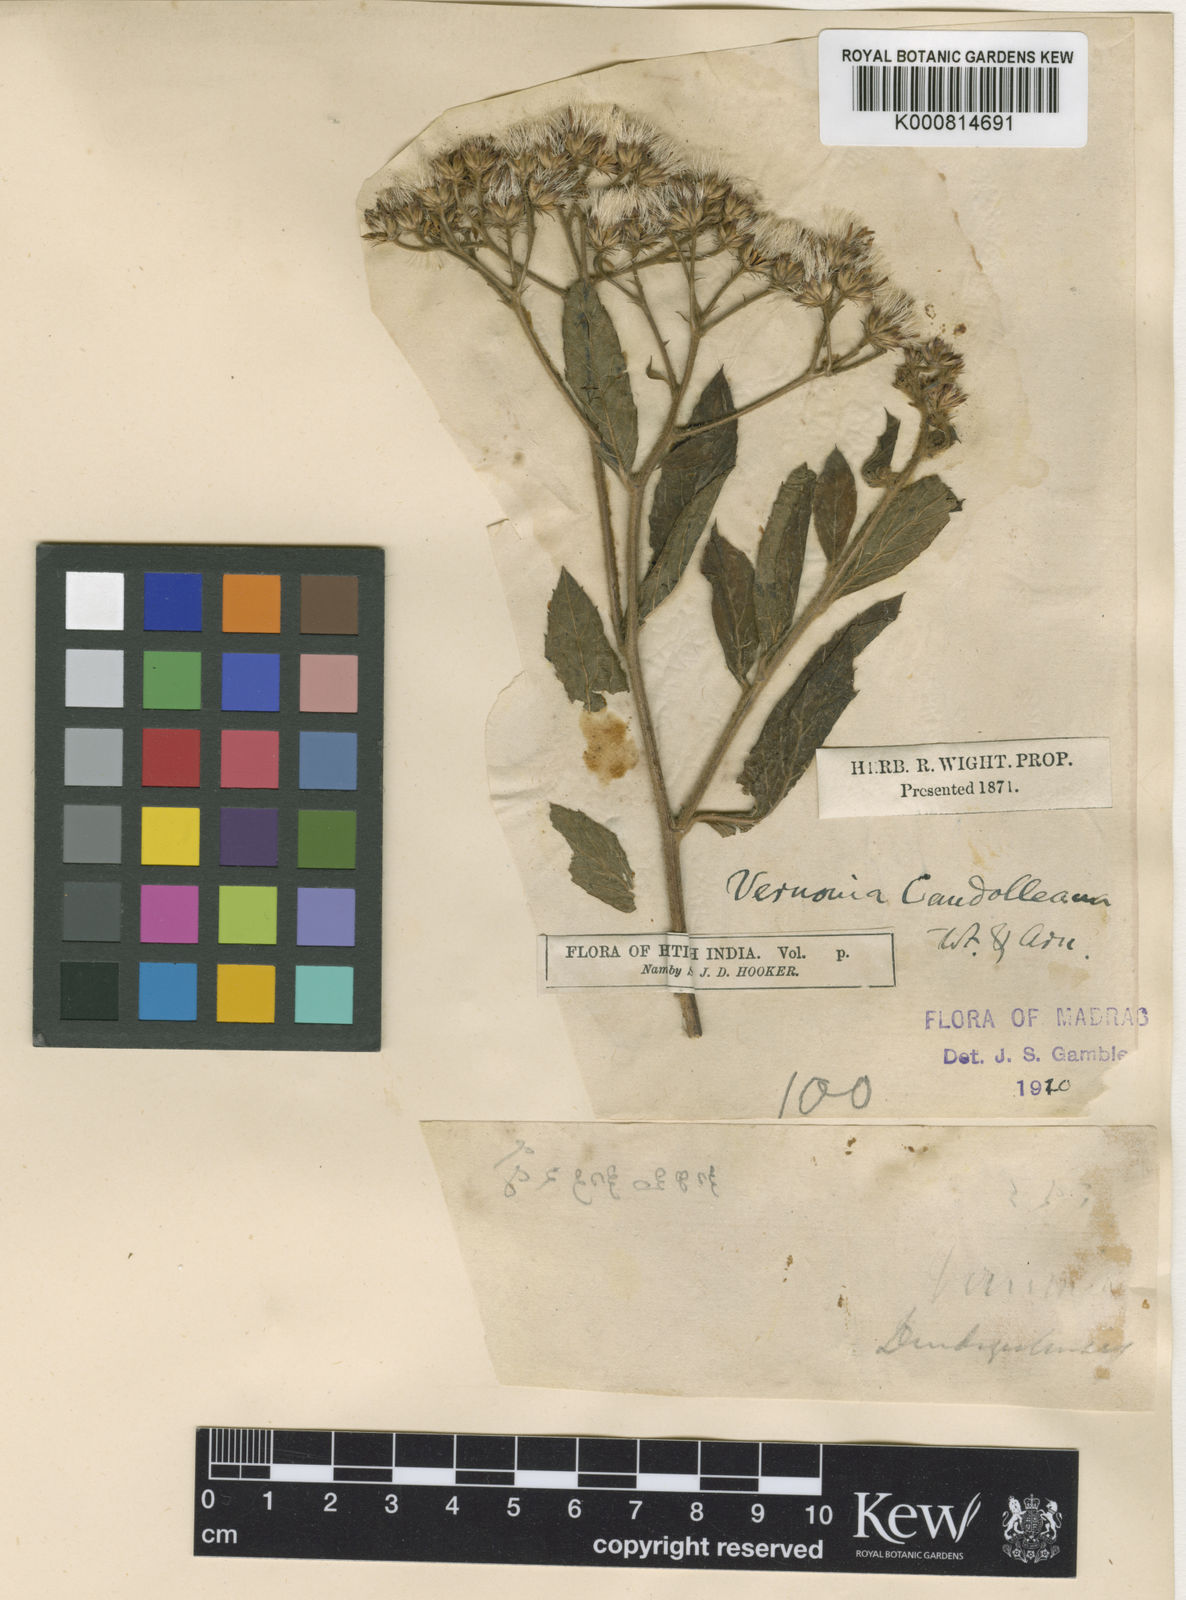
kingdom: Plantae
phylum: Tracheophyta
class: Magnoliopsida
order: Asterales
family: Asteraceae
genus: Cyanthillium
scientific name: Cyanthillium conyzoides
